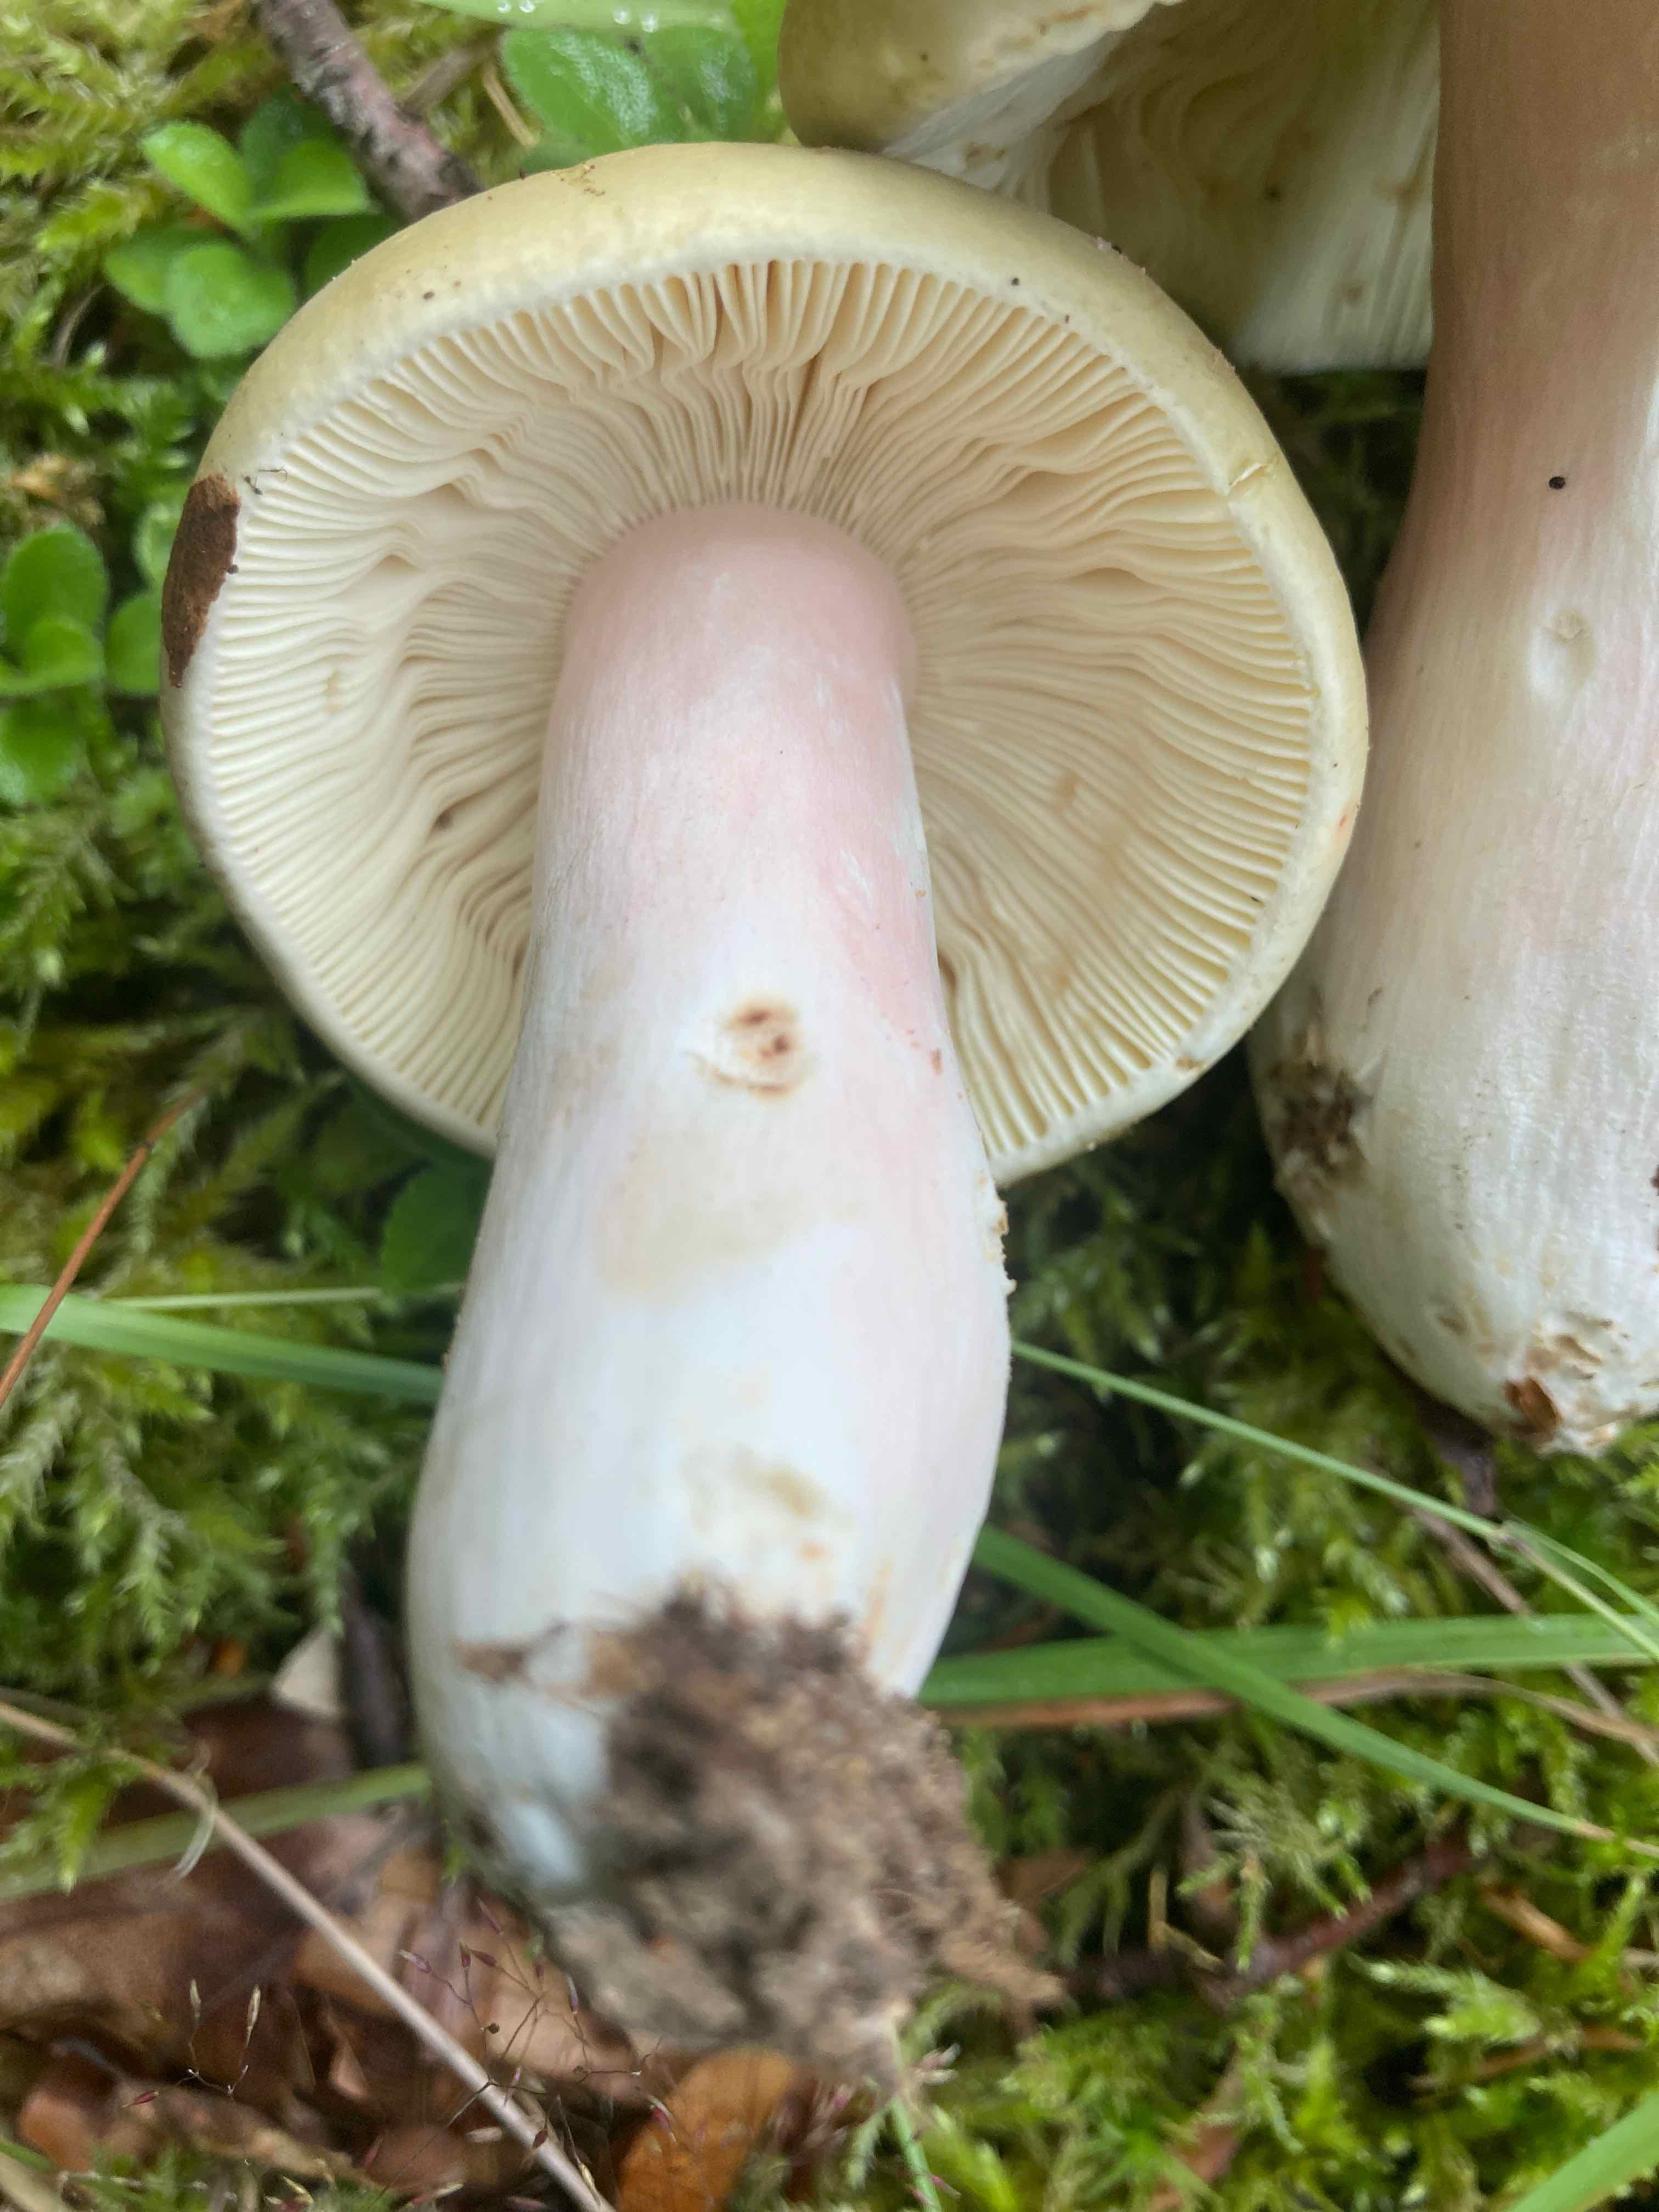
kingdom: Fungi
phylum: Basidiomycota
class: Agaricomycetes
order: Russulales
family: Russulaceae
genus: Russula
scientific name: Russula olivacea
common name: stor skørhat
